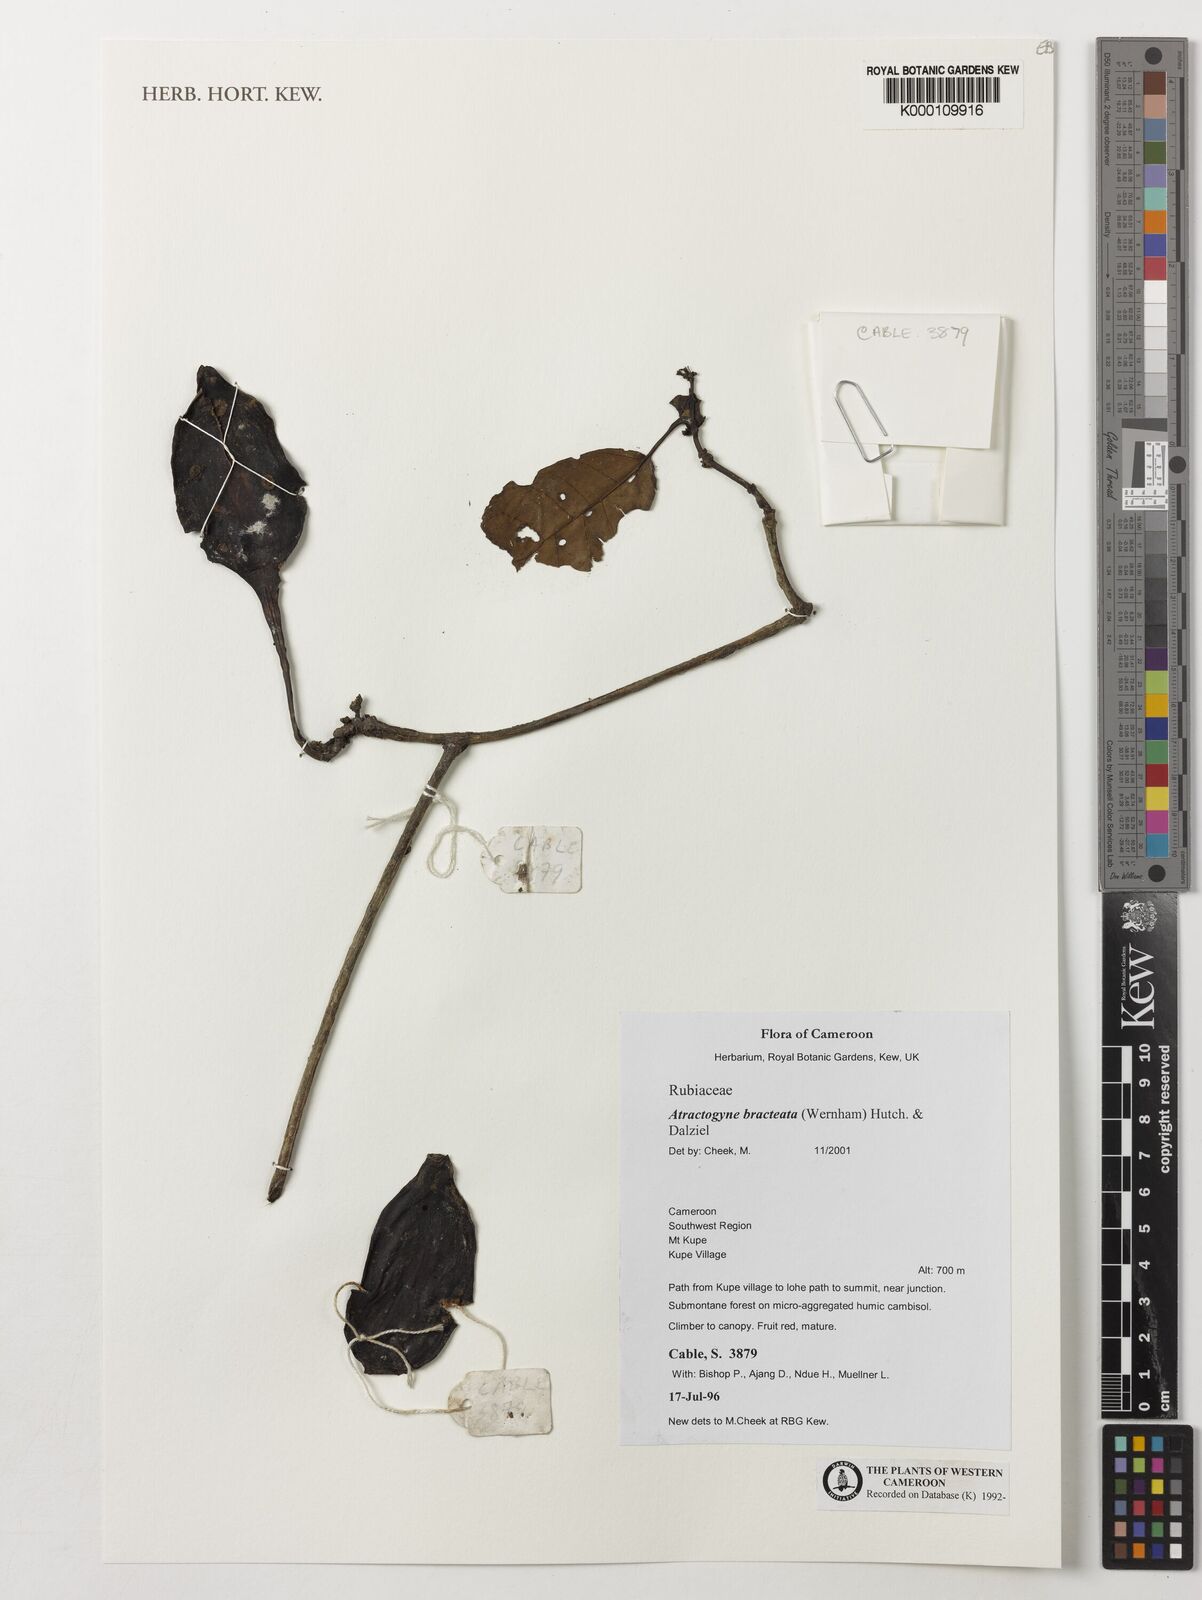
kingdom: Plantae
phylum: Tracheophyta
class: Magnoliopsida
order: Gentianales
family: Rubiaceae
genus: Atractogyne
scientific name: Atractogyne bracteata
